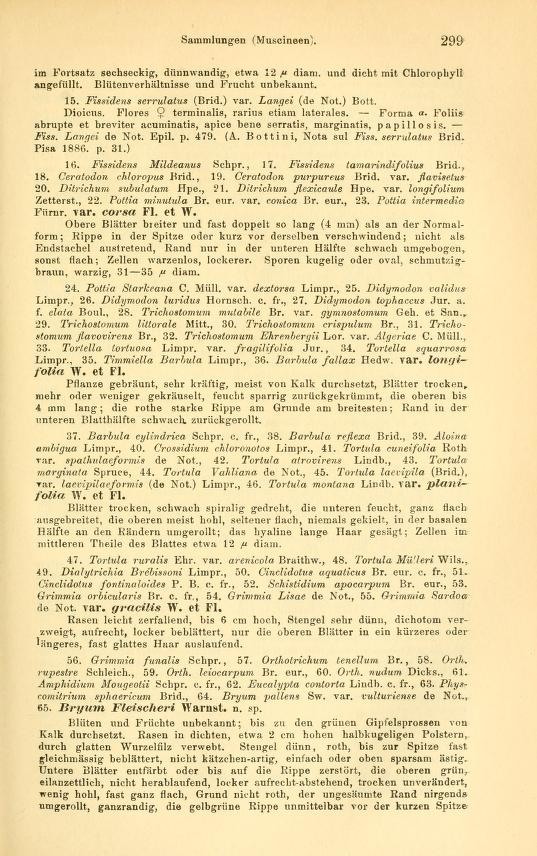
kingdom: Plantae
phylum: Bryophyta
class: Bryopsida
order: Pottiales
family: Pottiaceae
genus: Geheebia
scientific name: Geheebia fallax
